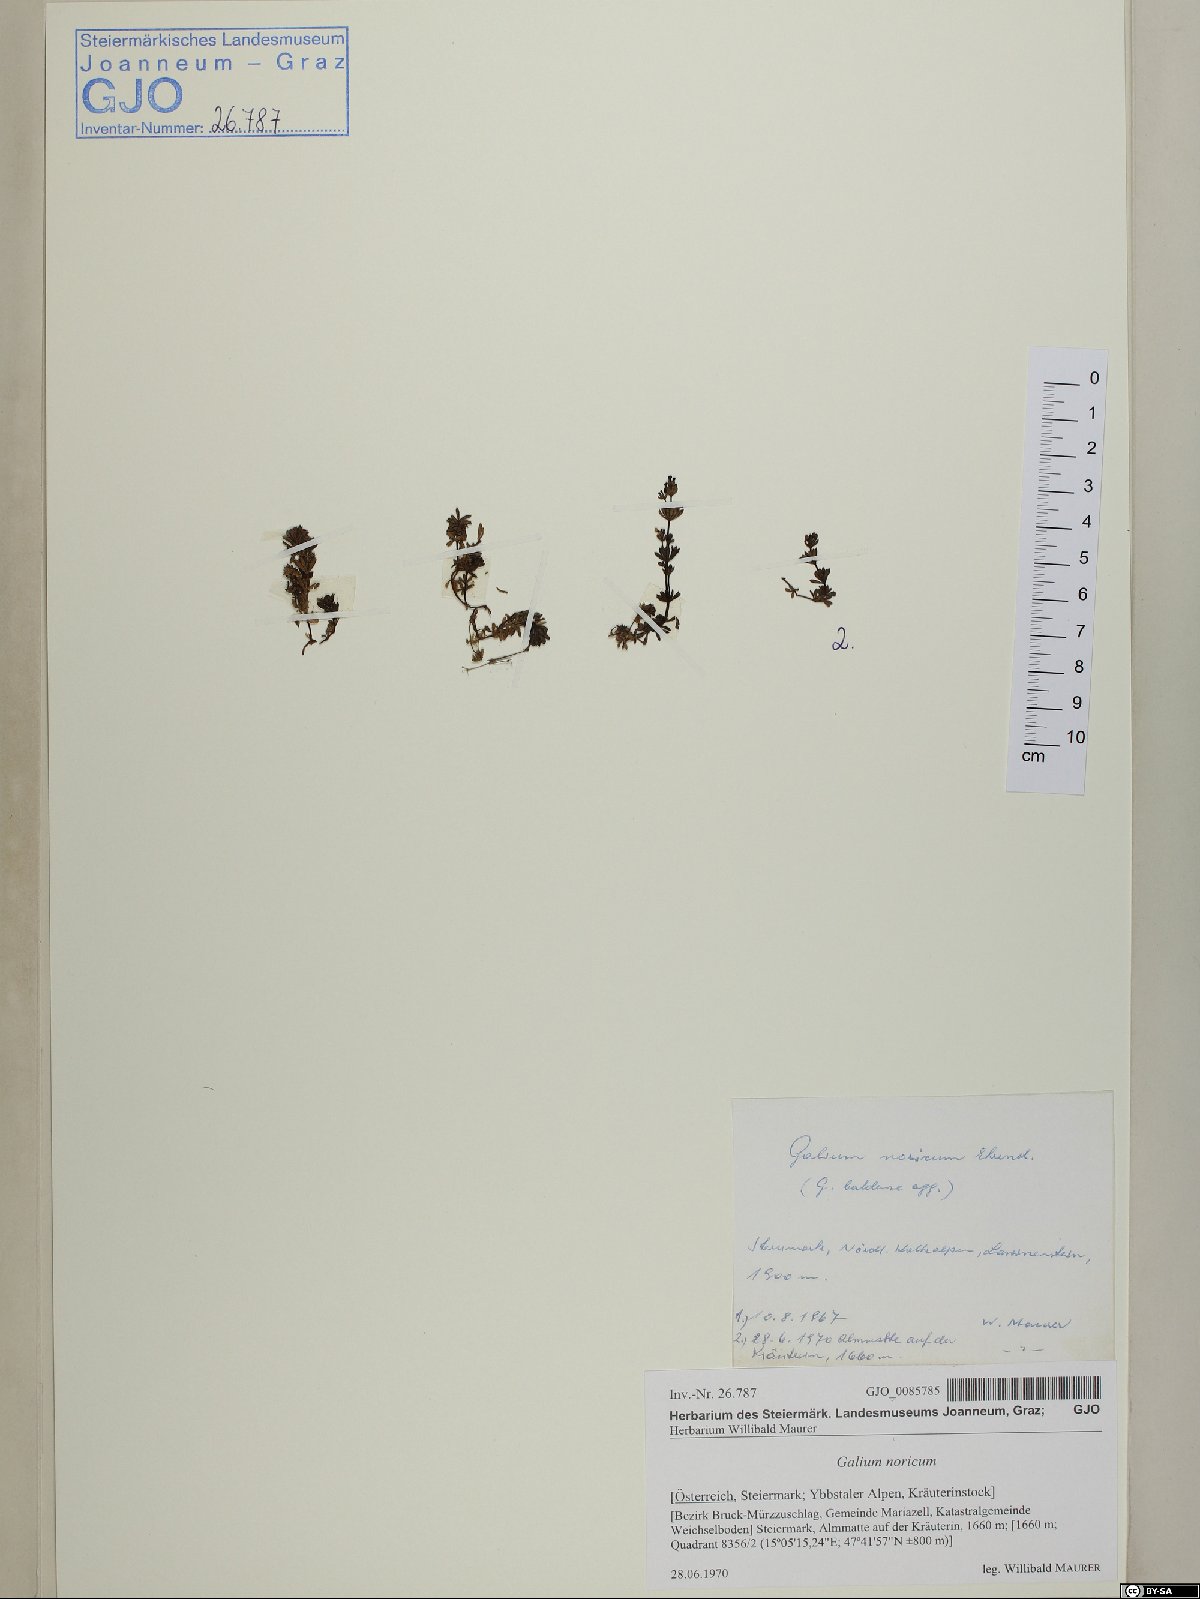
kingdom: Plantae
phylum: Tracheophyta
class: Magnoliopsida
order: Gentianales
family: Rubiaceae
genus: Galium
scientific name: Galium noricum
